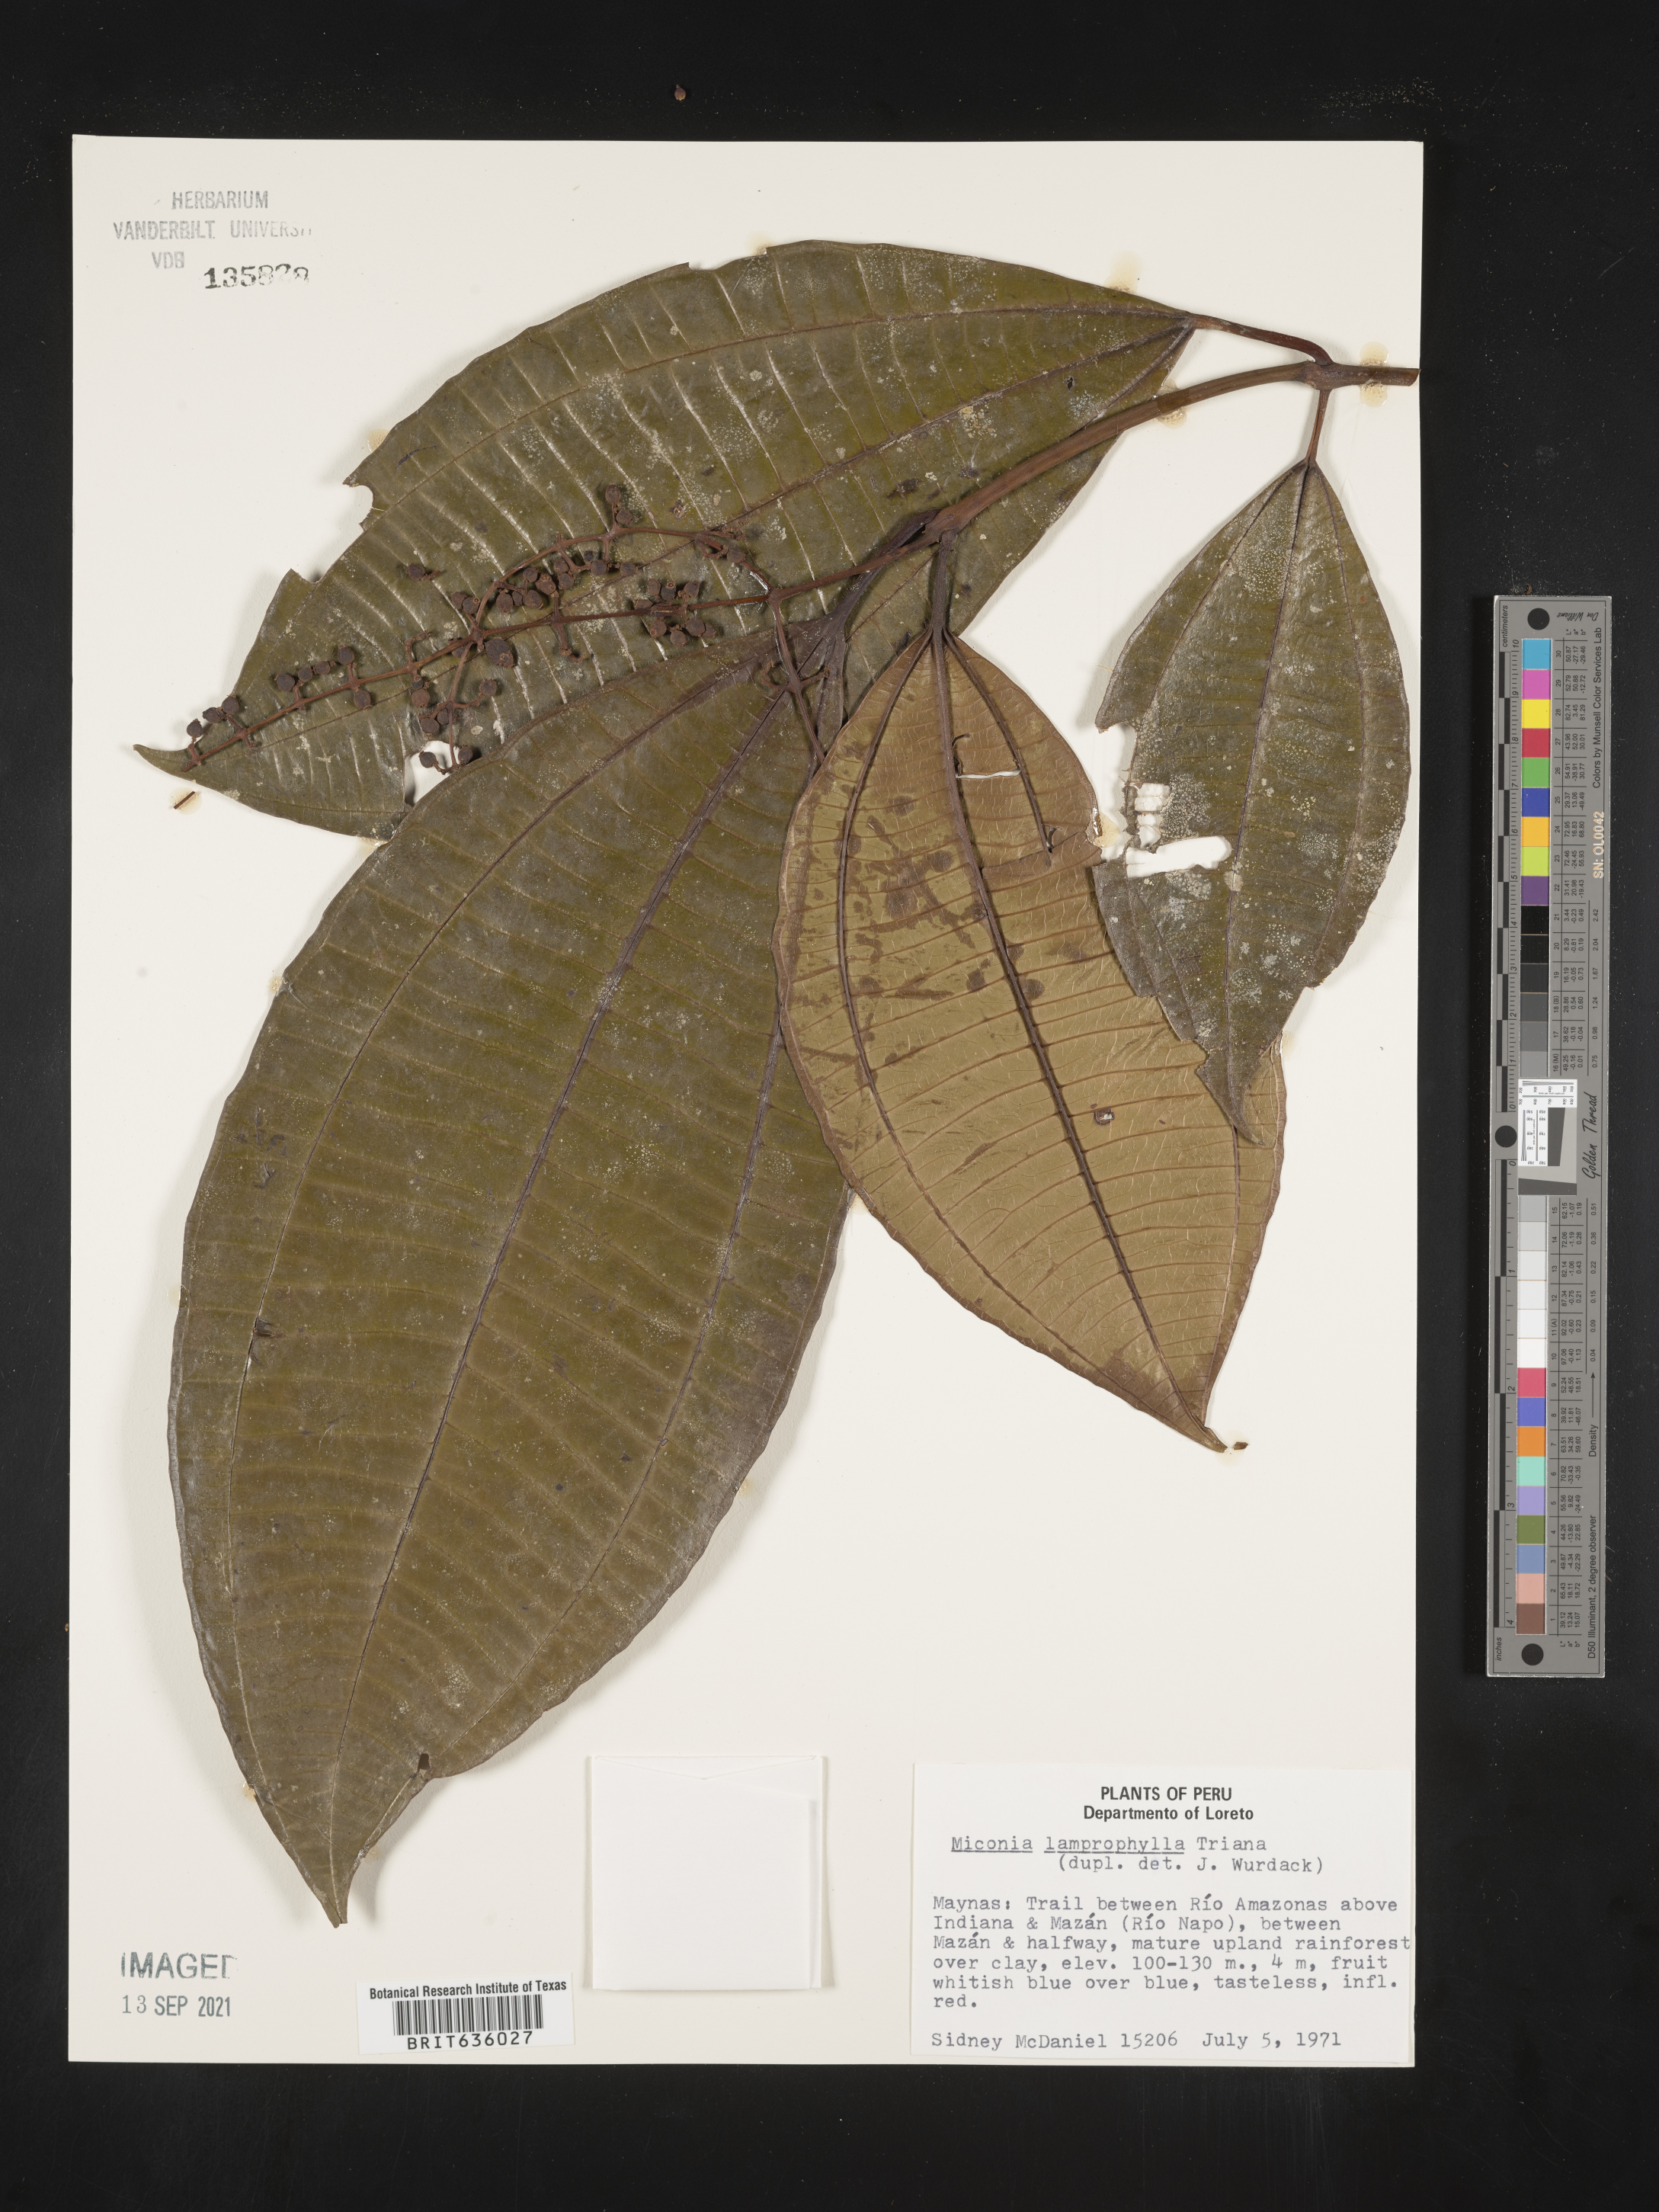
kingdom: Plantae
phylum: Tracheophyta
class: Magnoliopsida
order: Myrtales
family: Melastomataceae
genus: Miconia
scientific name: Miconia
